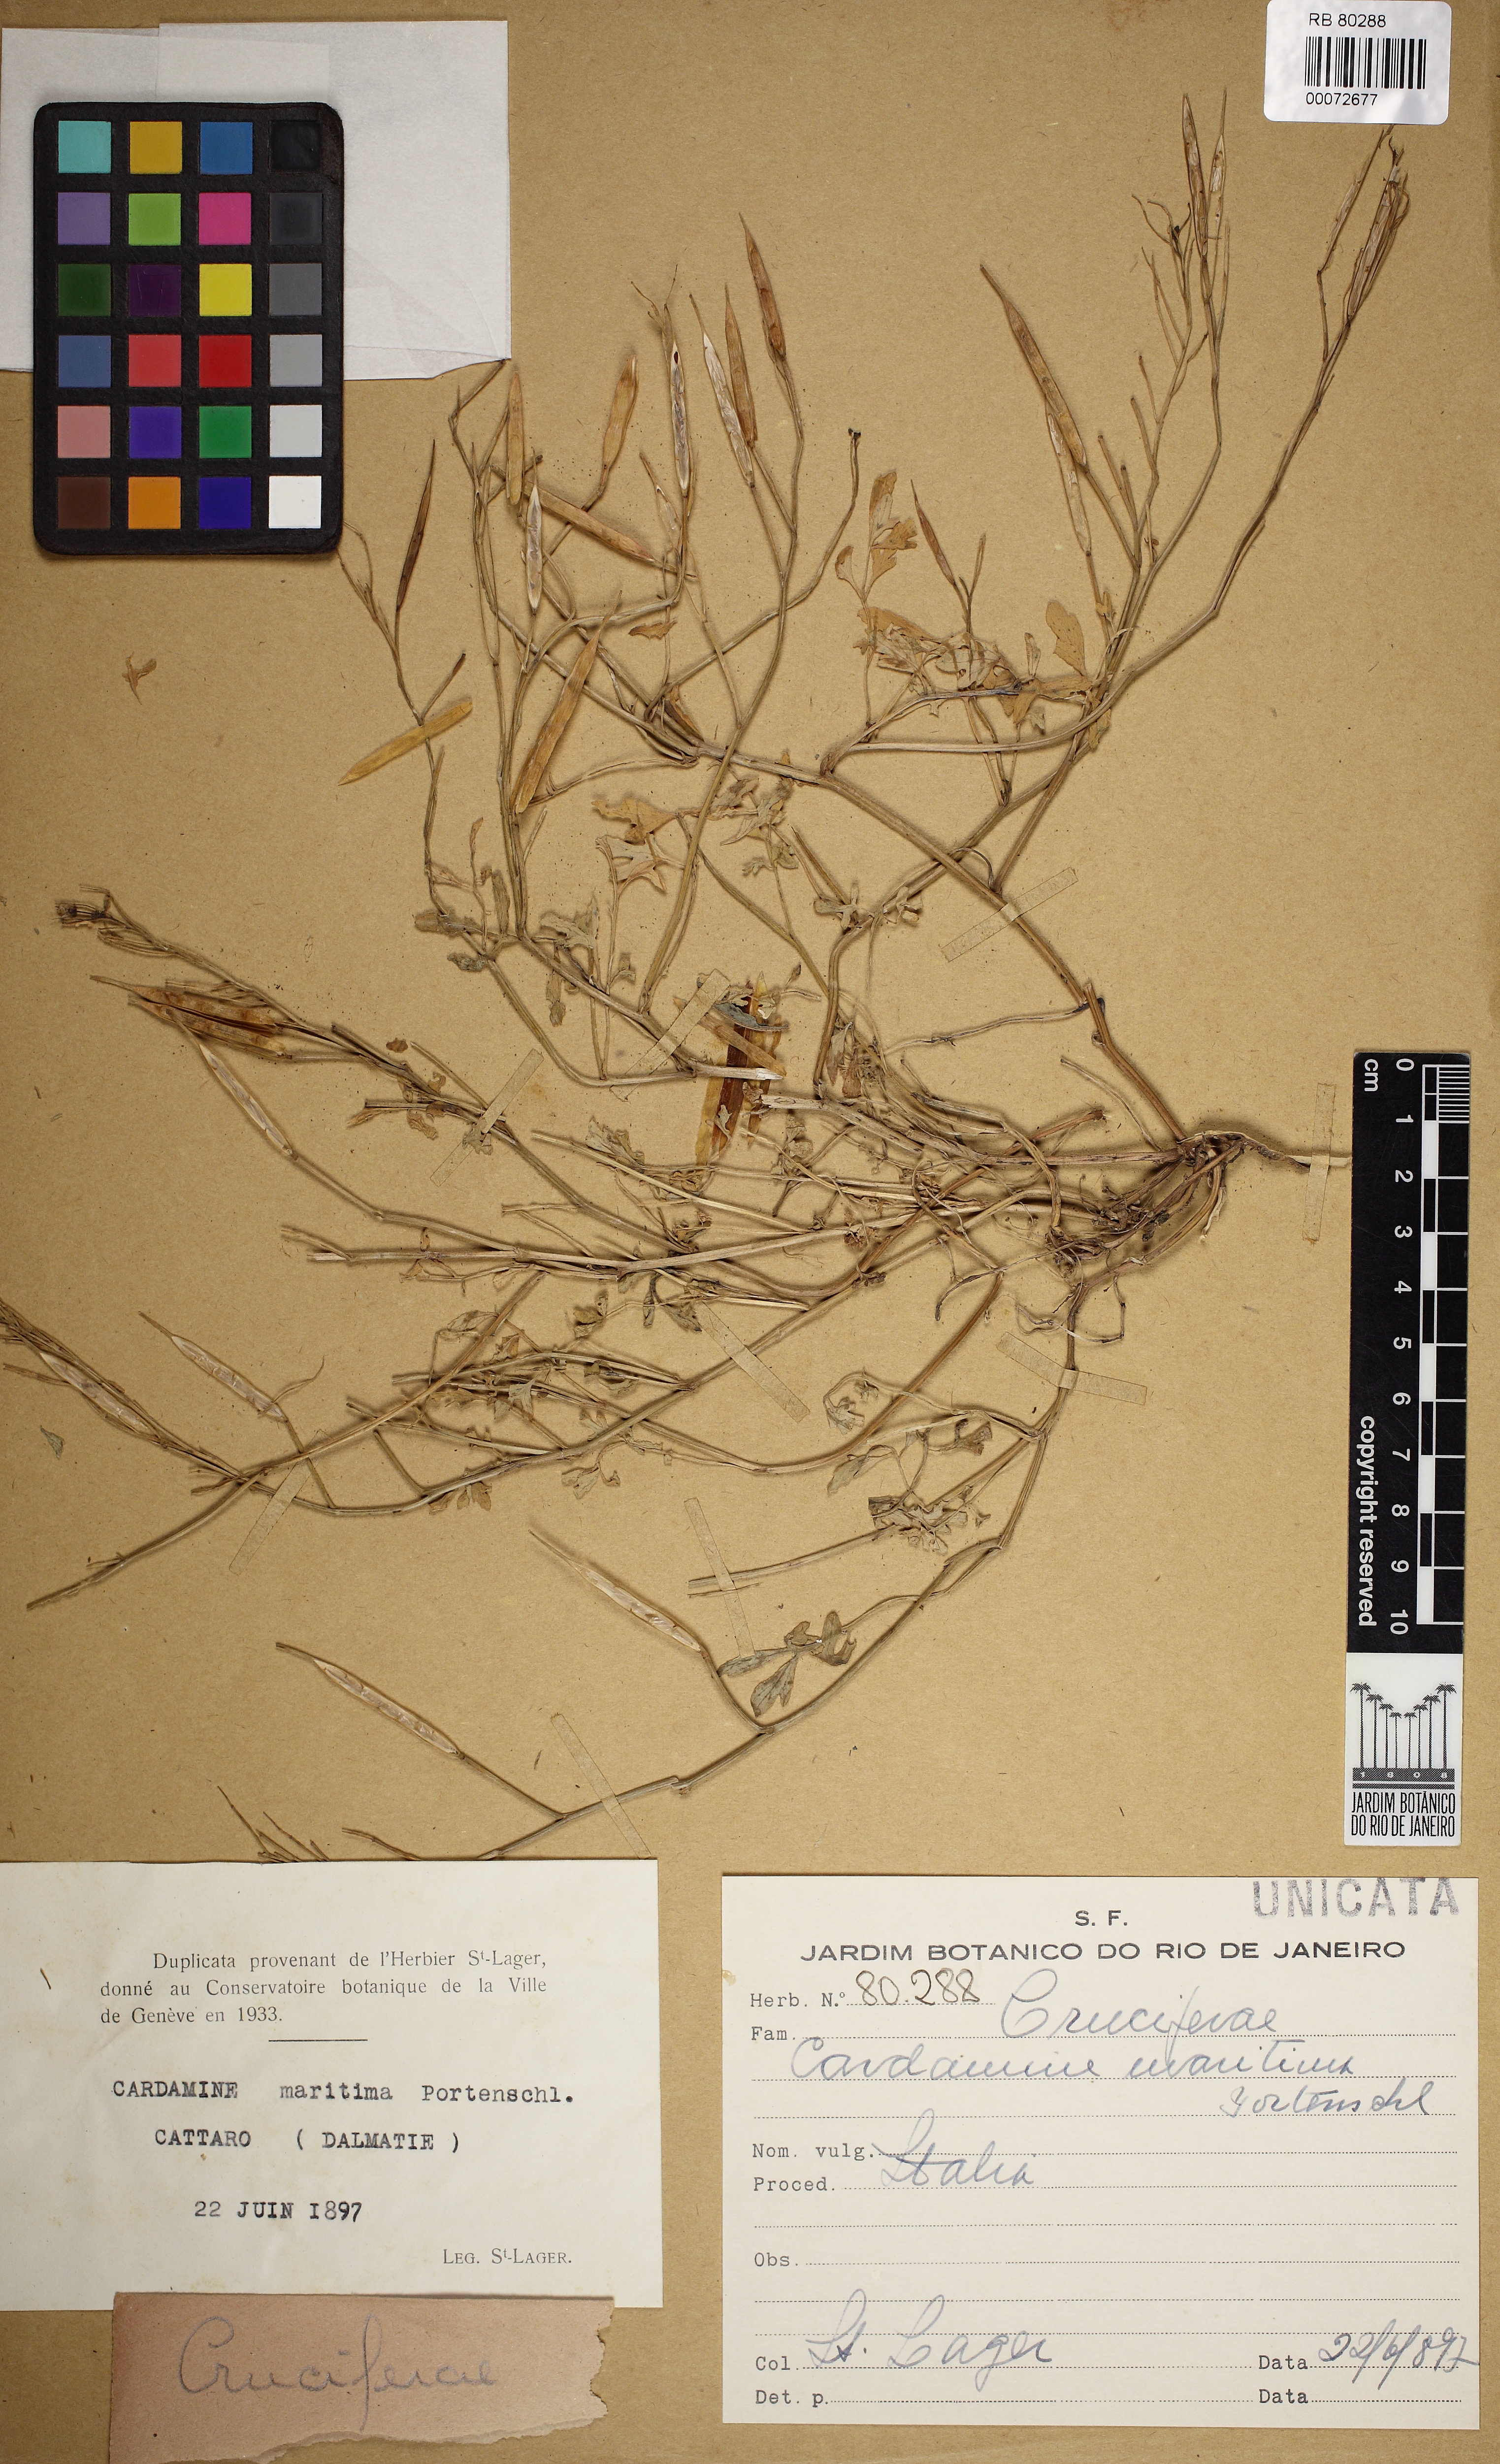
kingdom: Plantae
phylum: Tracheophyta
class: Magnoliopsida
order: Brassicales
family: Brassicaceae
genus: Cardamine
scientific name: Cardamine maritima
